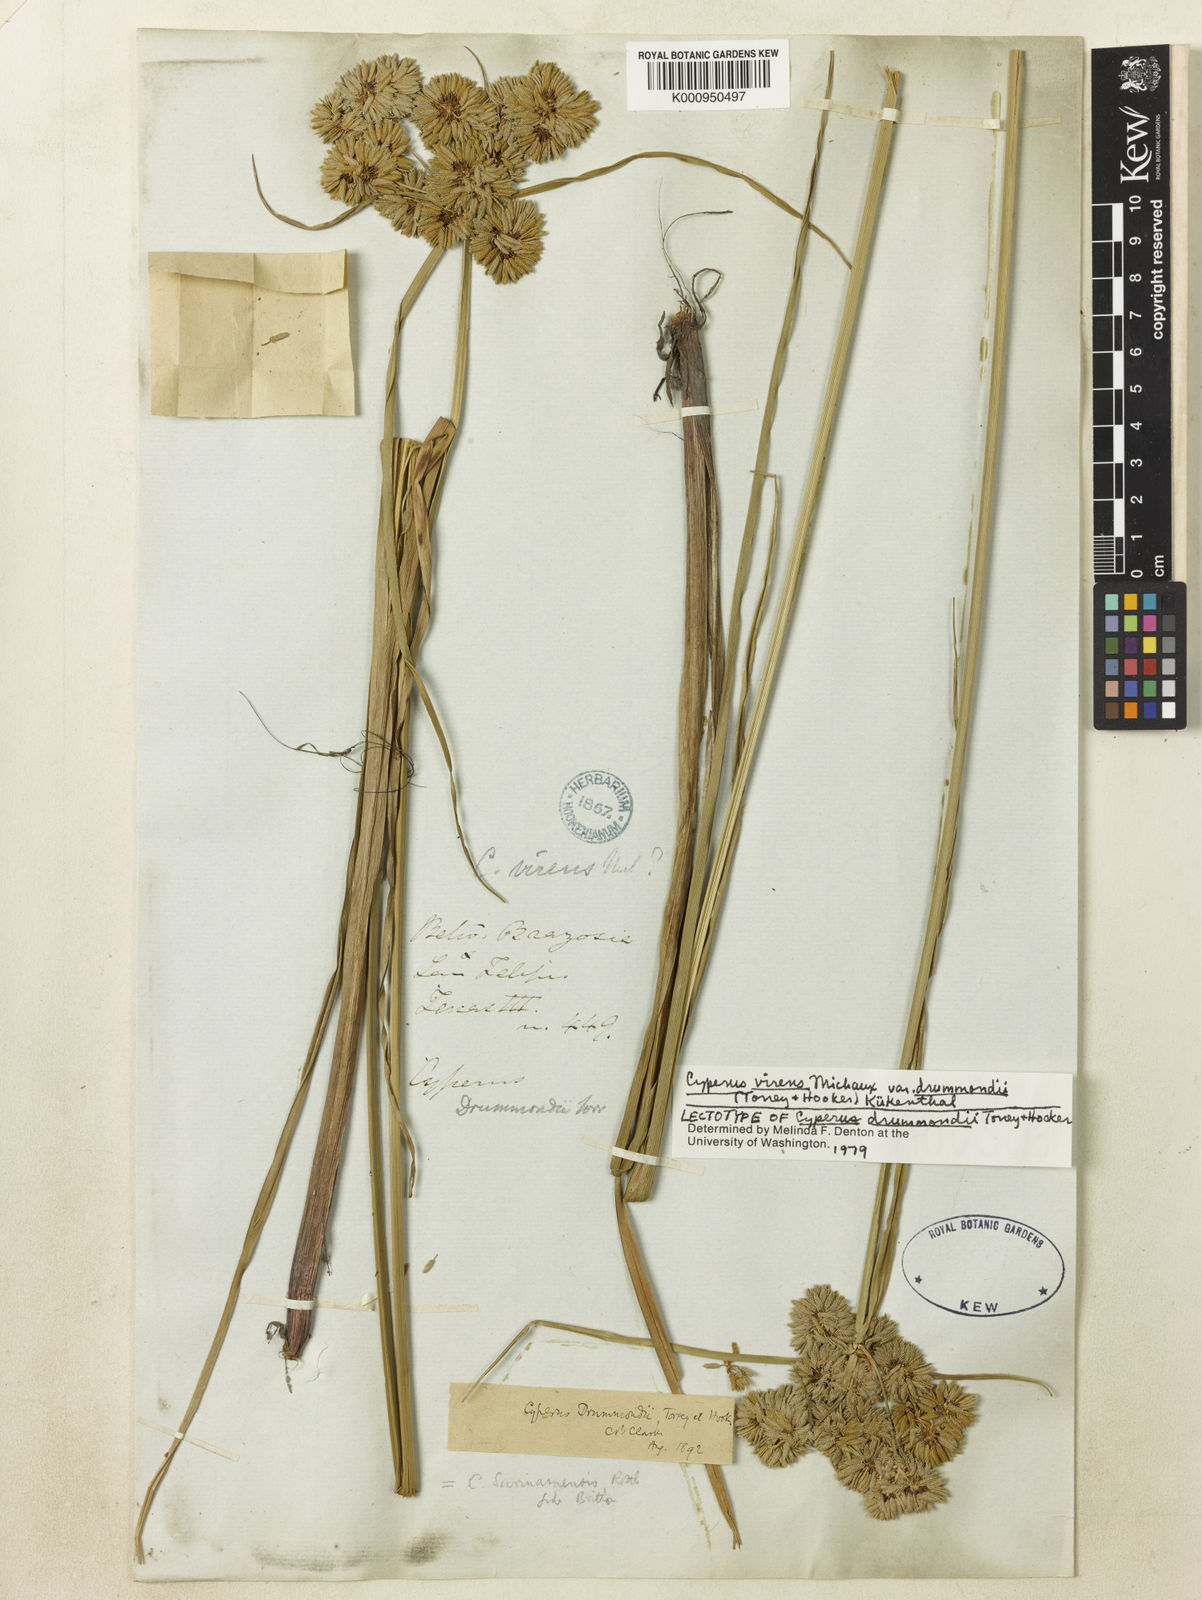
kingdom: Plantae
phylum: Tracheophyta
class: Liliopsida
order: Poales
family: Cyperaceae
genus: Cyperus
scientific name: Cyperus virens
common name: Green flatsedge
